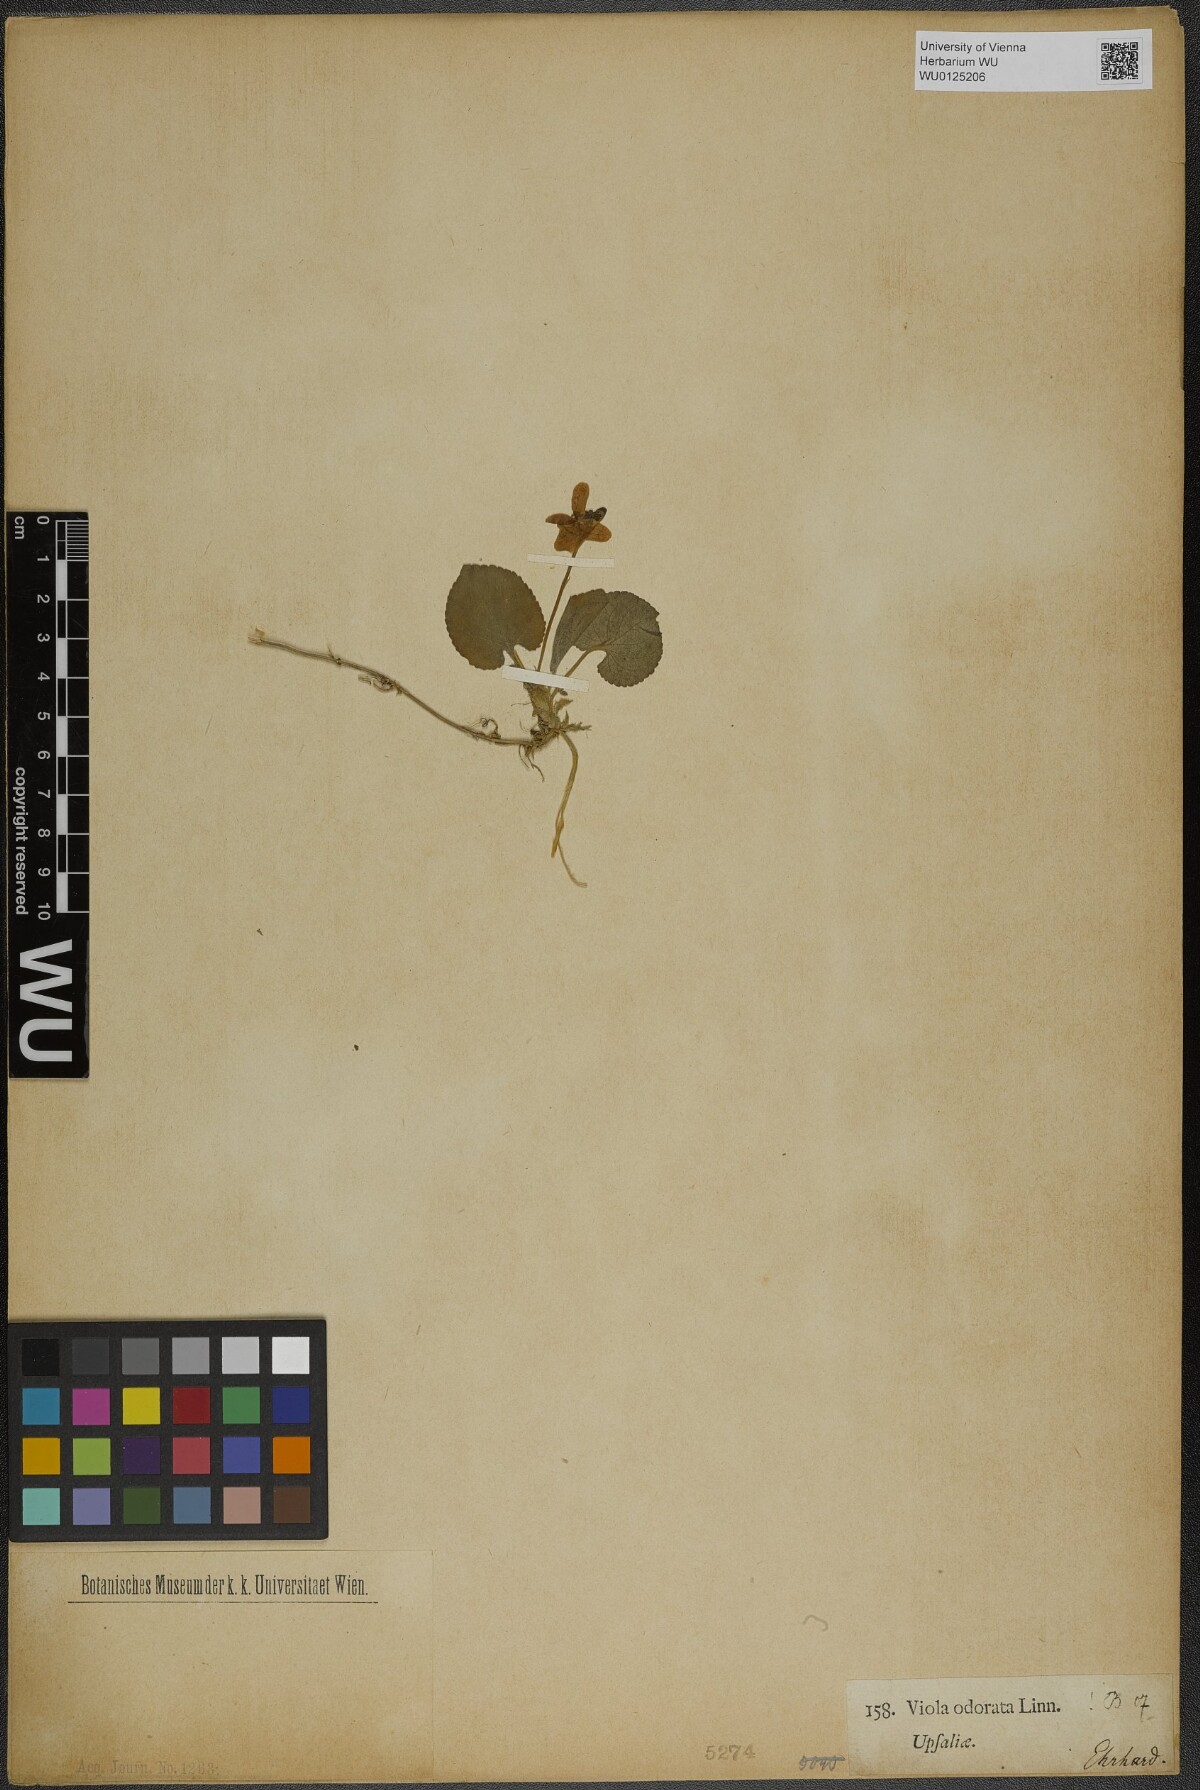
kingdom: Plantae
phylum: Tracheophyta
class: Magnoliopsida
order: Malpighiales
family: Violaceae
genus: Viola
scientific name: Viola odorata
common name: Sweet violet
